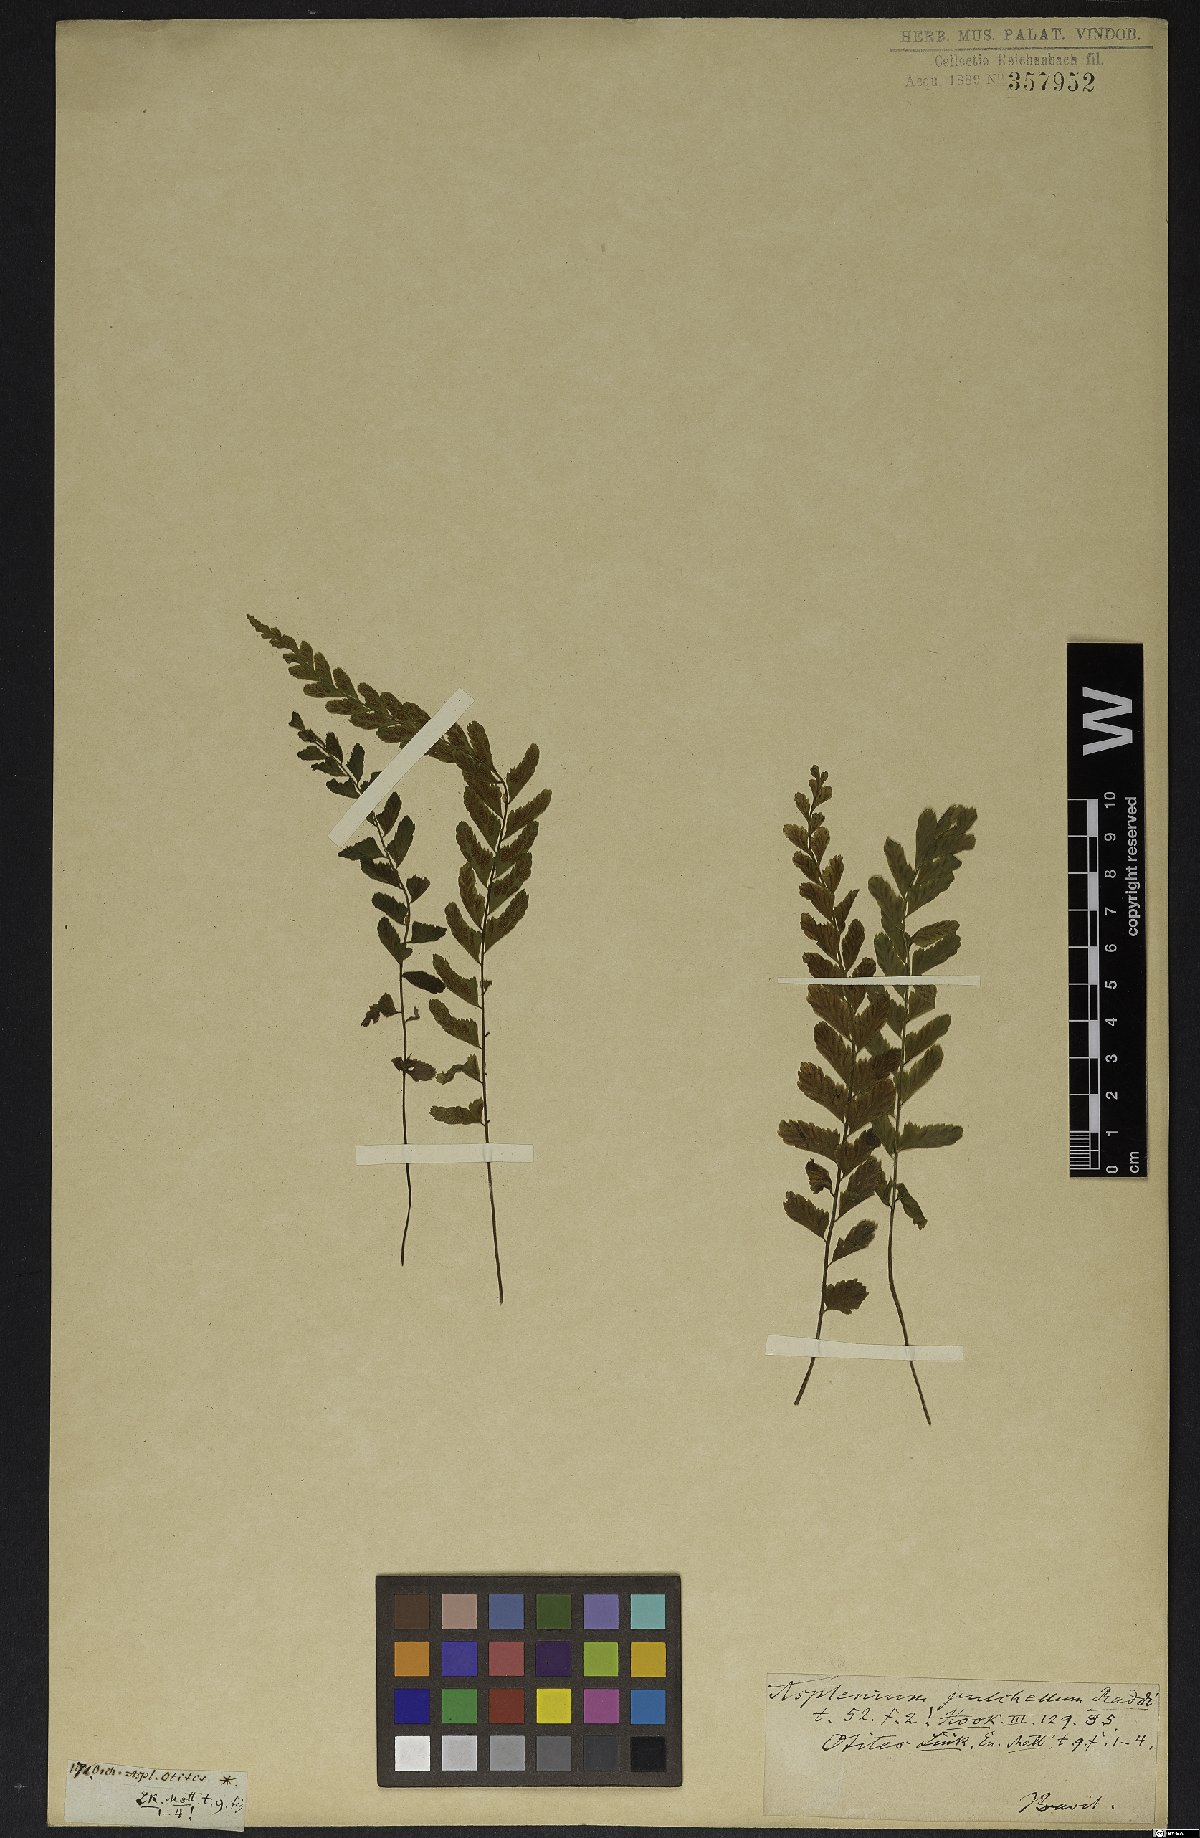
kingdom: Plantae
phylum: Tracheophyta
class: Polypodiopsida
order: Polypodiales
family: Aspleniaceae
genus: Asplenium
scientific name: Asplenium pulchellum
